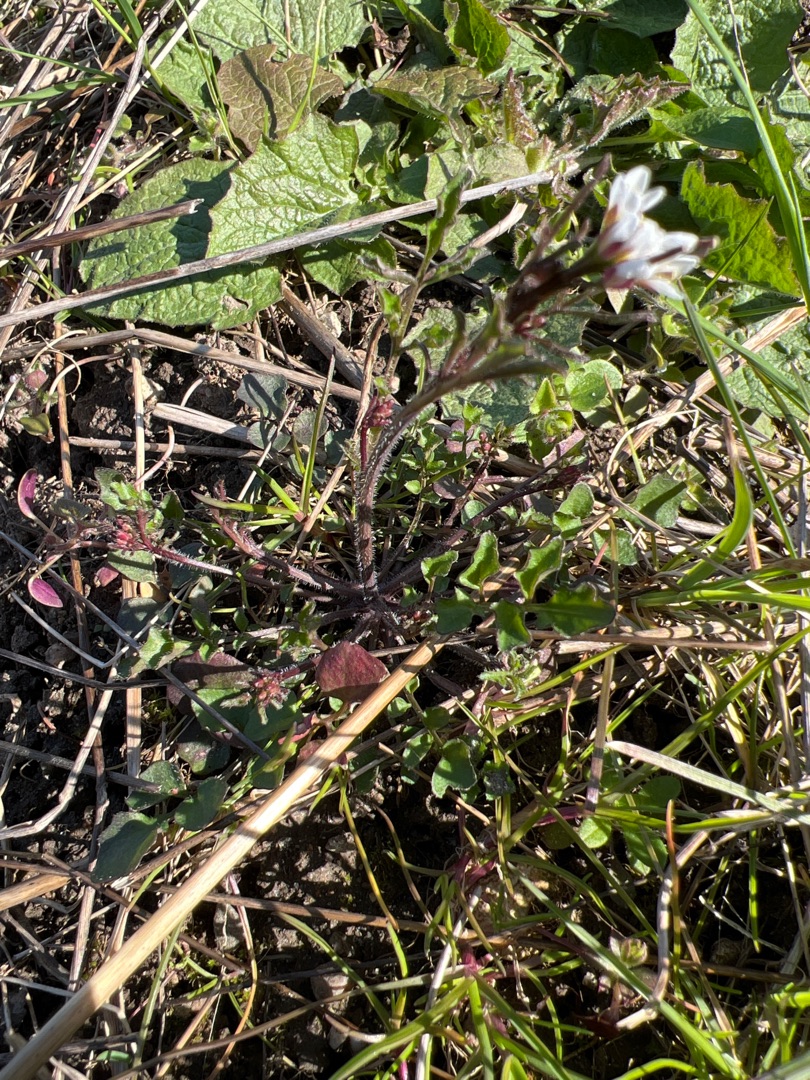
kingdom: Plantae
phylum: Tracheophyta
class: Magnoliopsida
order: Brassicales
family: Brassicaceae
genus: Cardamine
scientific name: Cardamine hirsuta
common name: Roset-springklap
